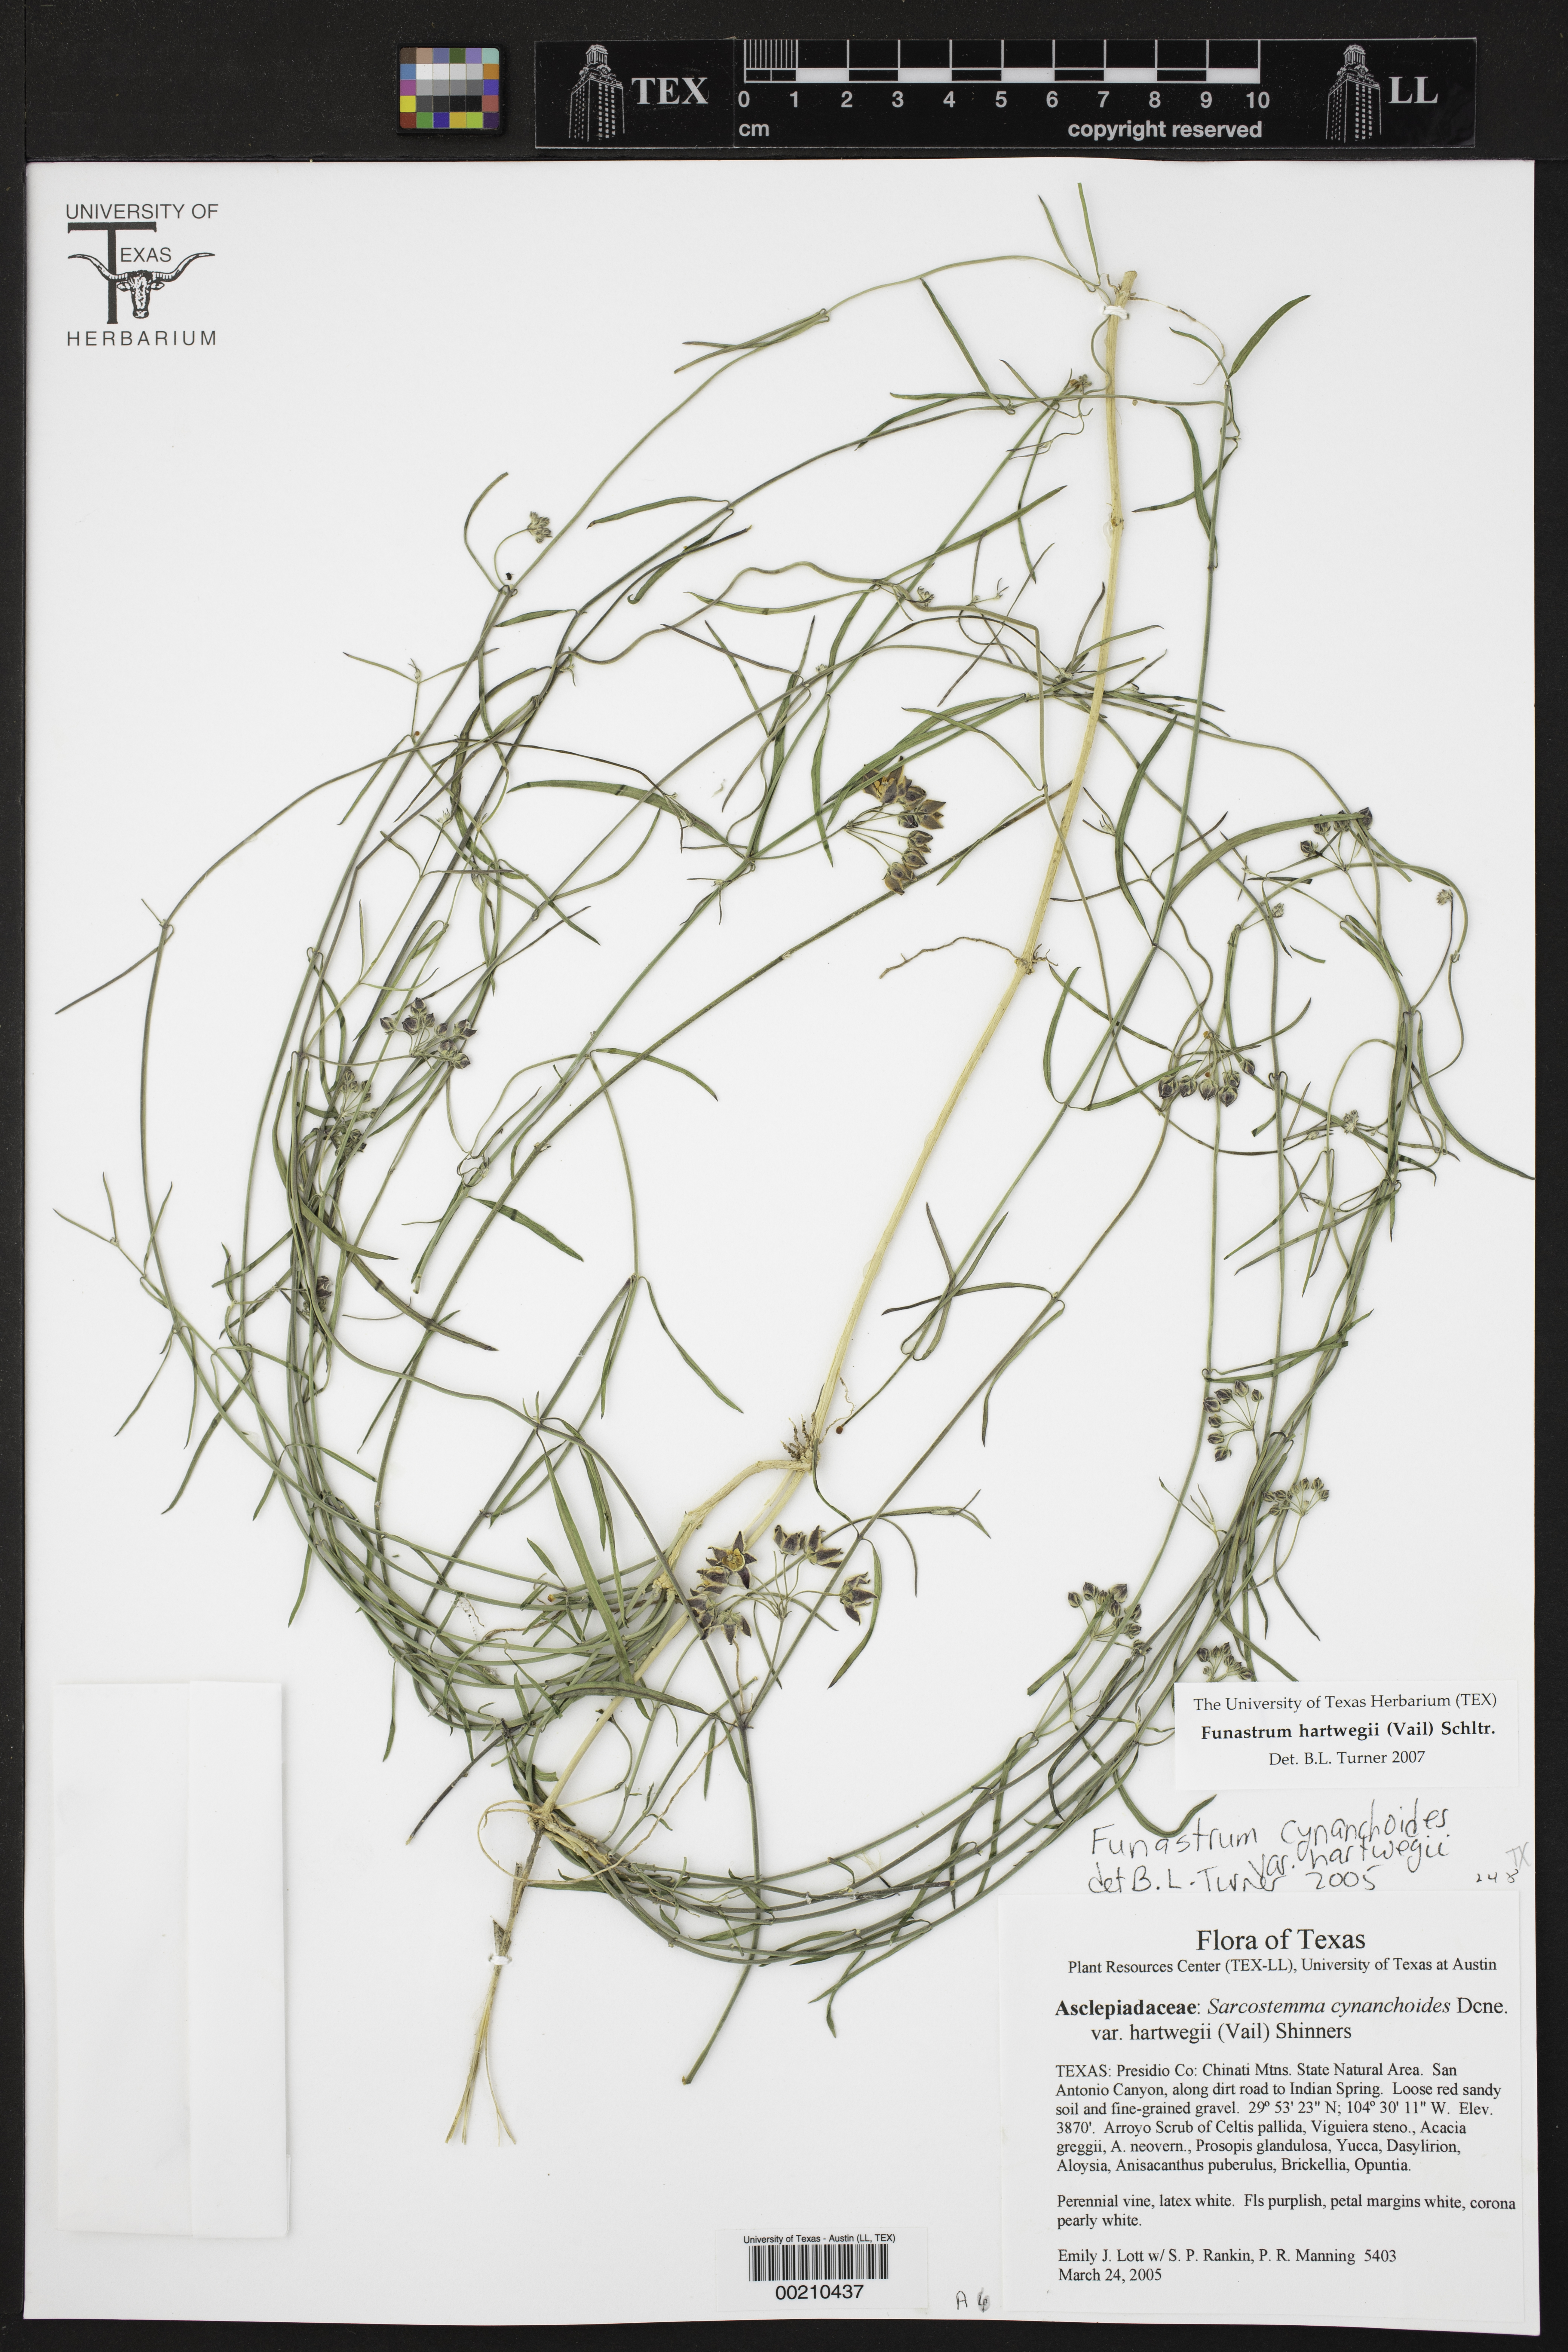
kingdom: Plantae
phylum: Tracheophyta
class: Magnoliopsida
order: Gentianales
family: Apocynaceae
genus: Funastrum
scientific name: Funastrum heterophyllum
